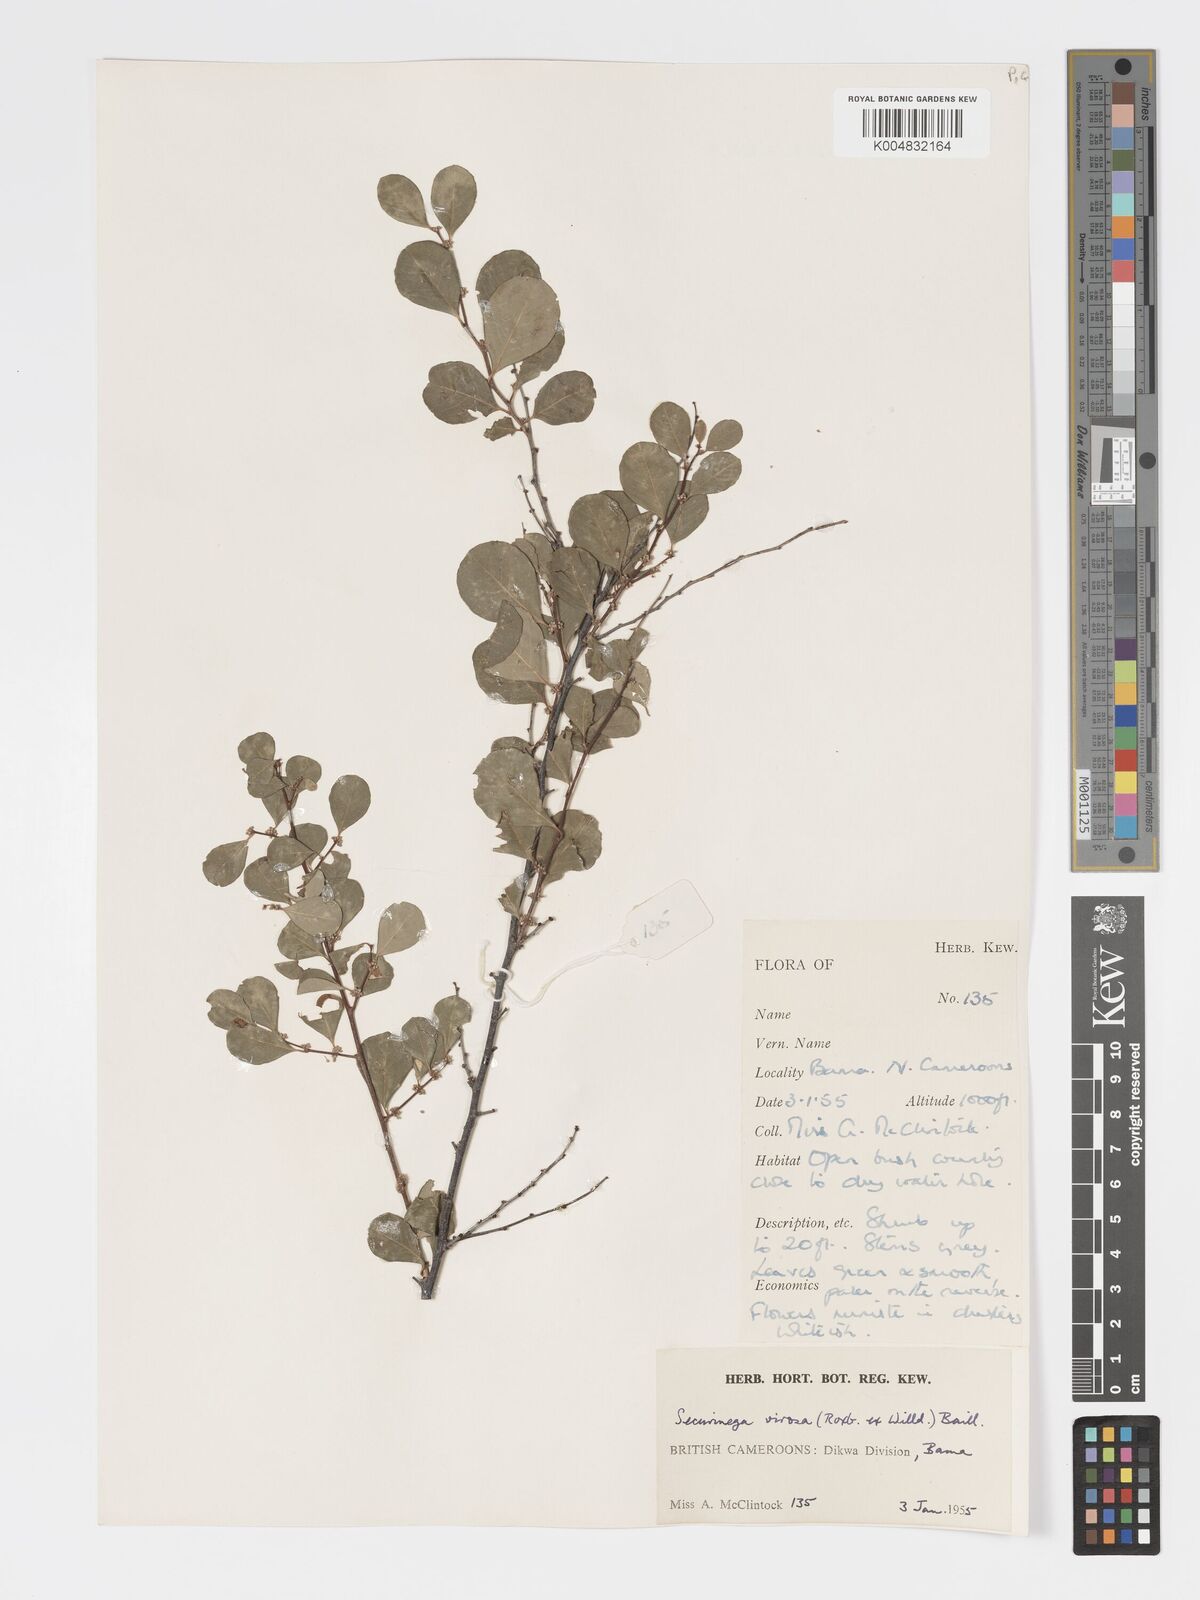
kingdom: Plantae
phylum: Tracheophyta
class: Magnoliopsida
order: Malpighiales
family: Phyllanthaceae
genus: Flueggea
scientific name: Flueggea virosa
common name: Common bushweed
